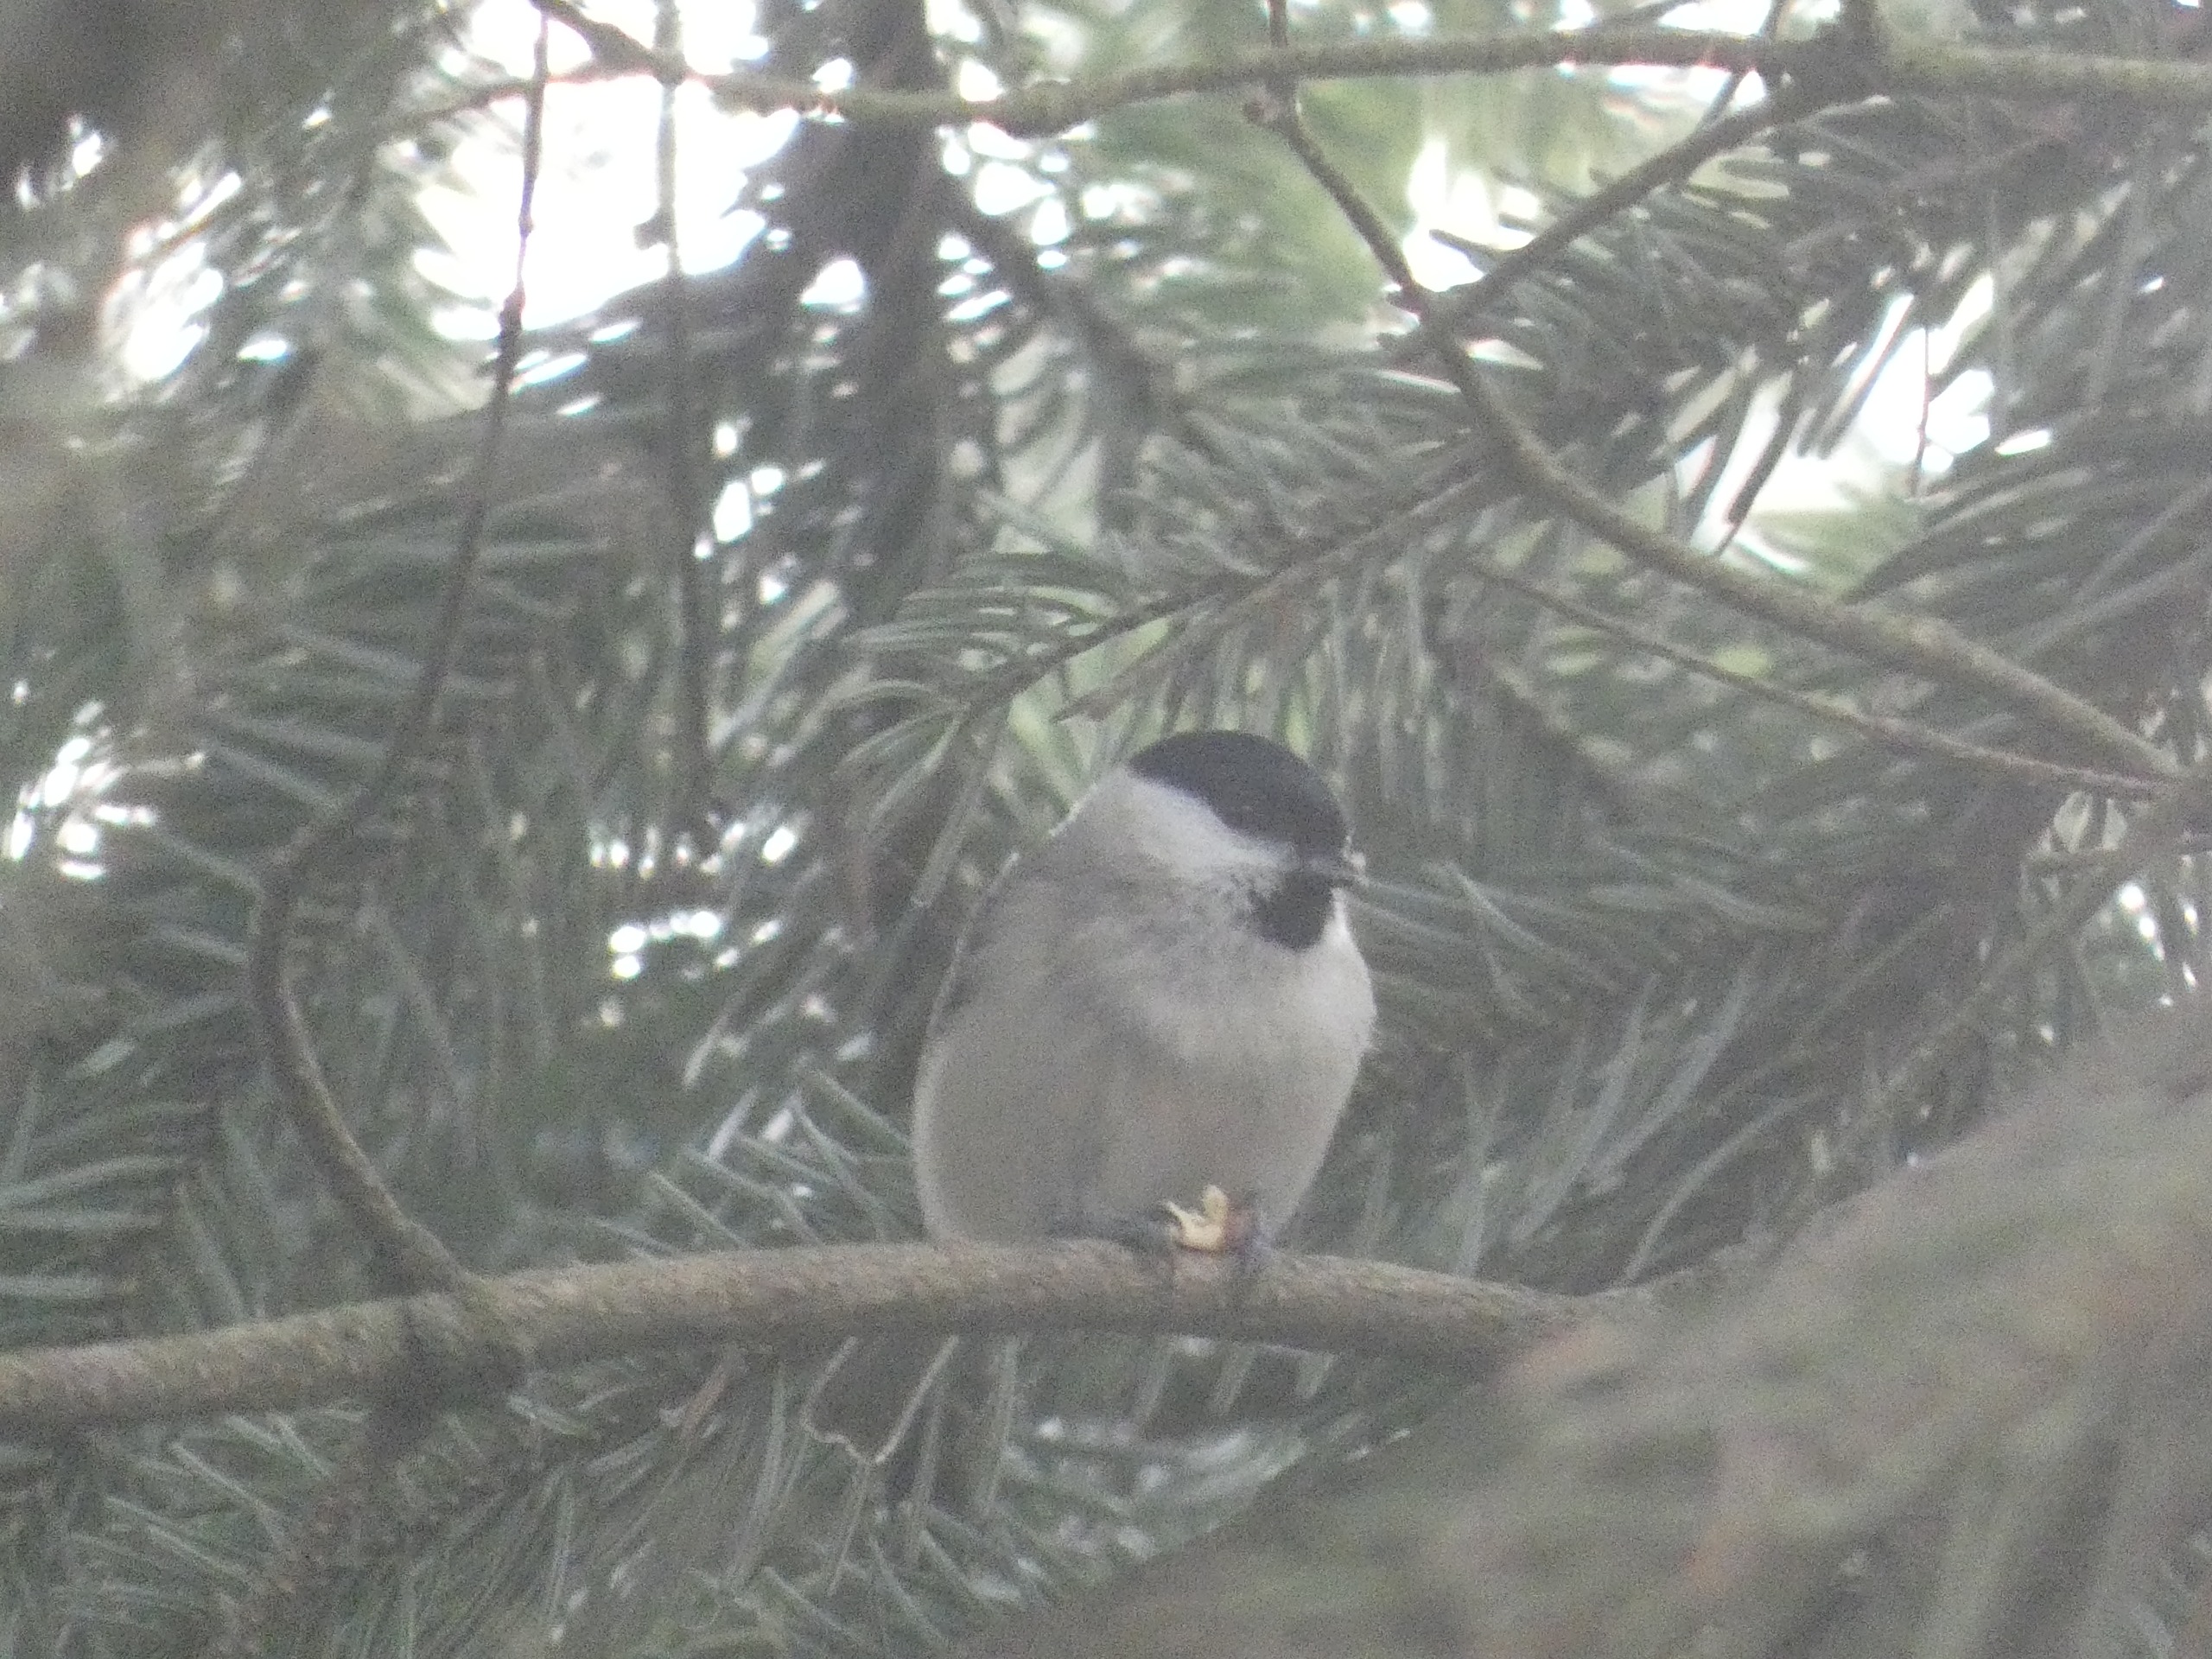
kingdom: Animalia
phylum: Chordata
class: Aves
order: Passeriformes
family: Paridae
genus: Poecile
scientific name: Poecile palustris
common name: Sumpmejse
